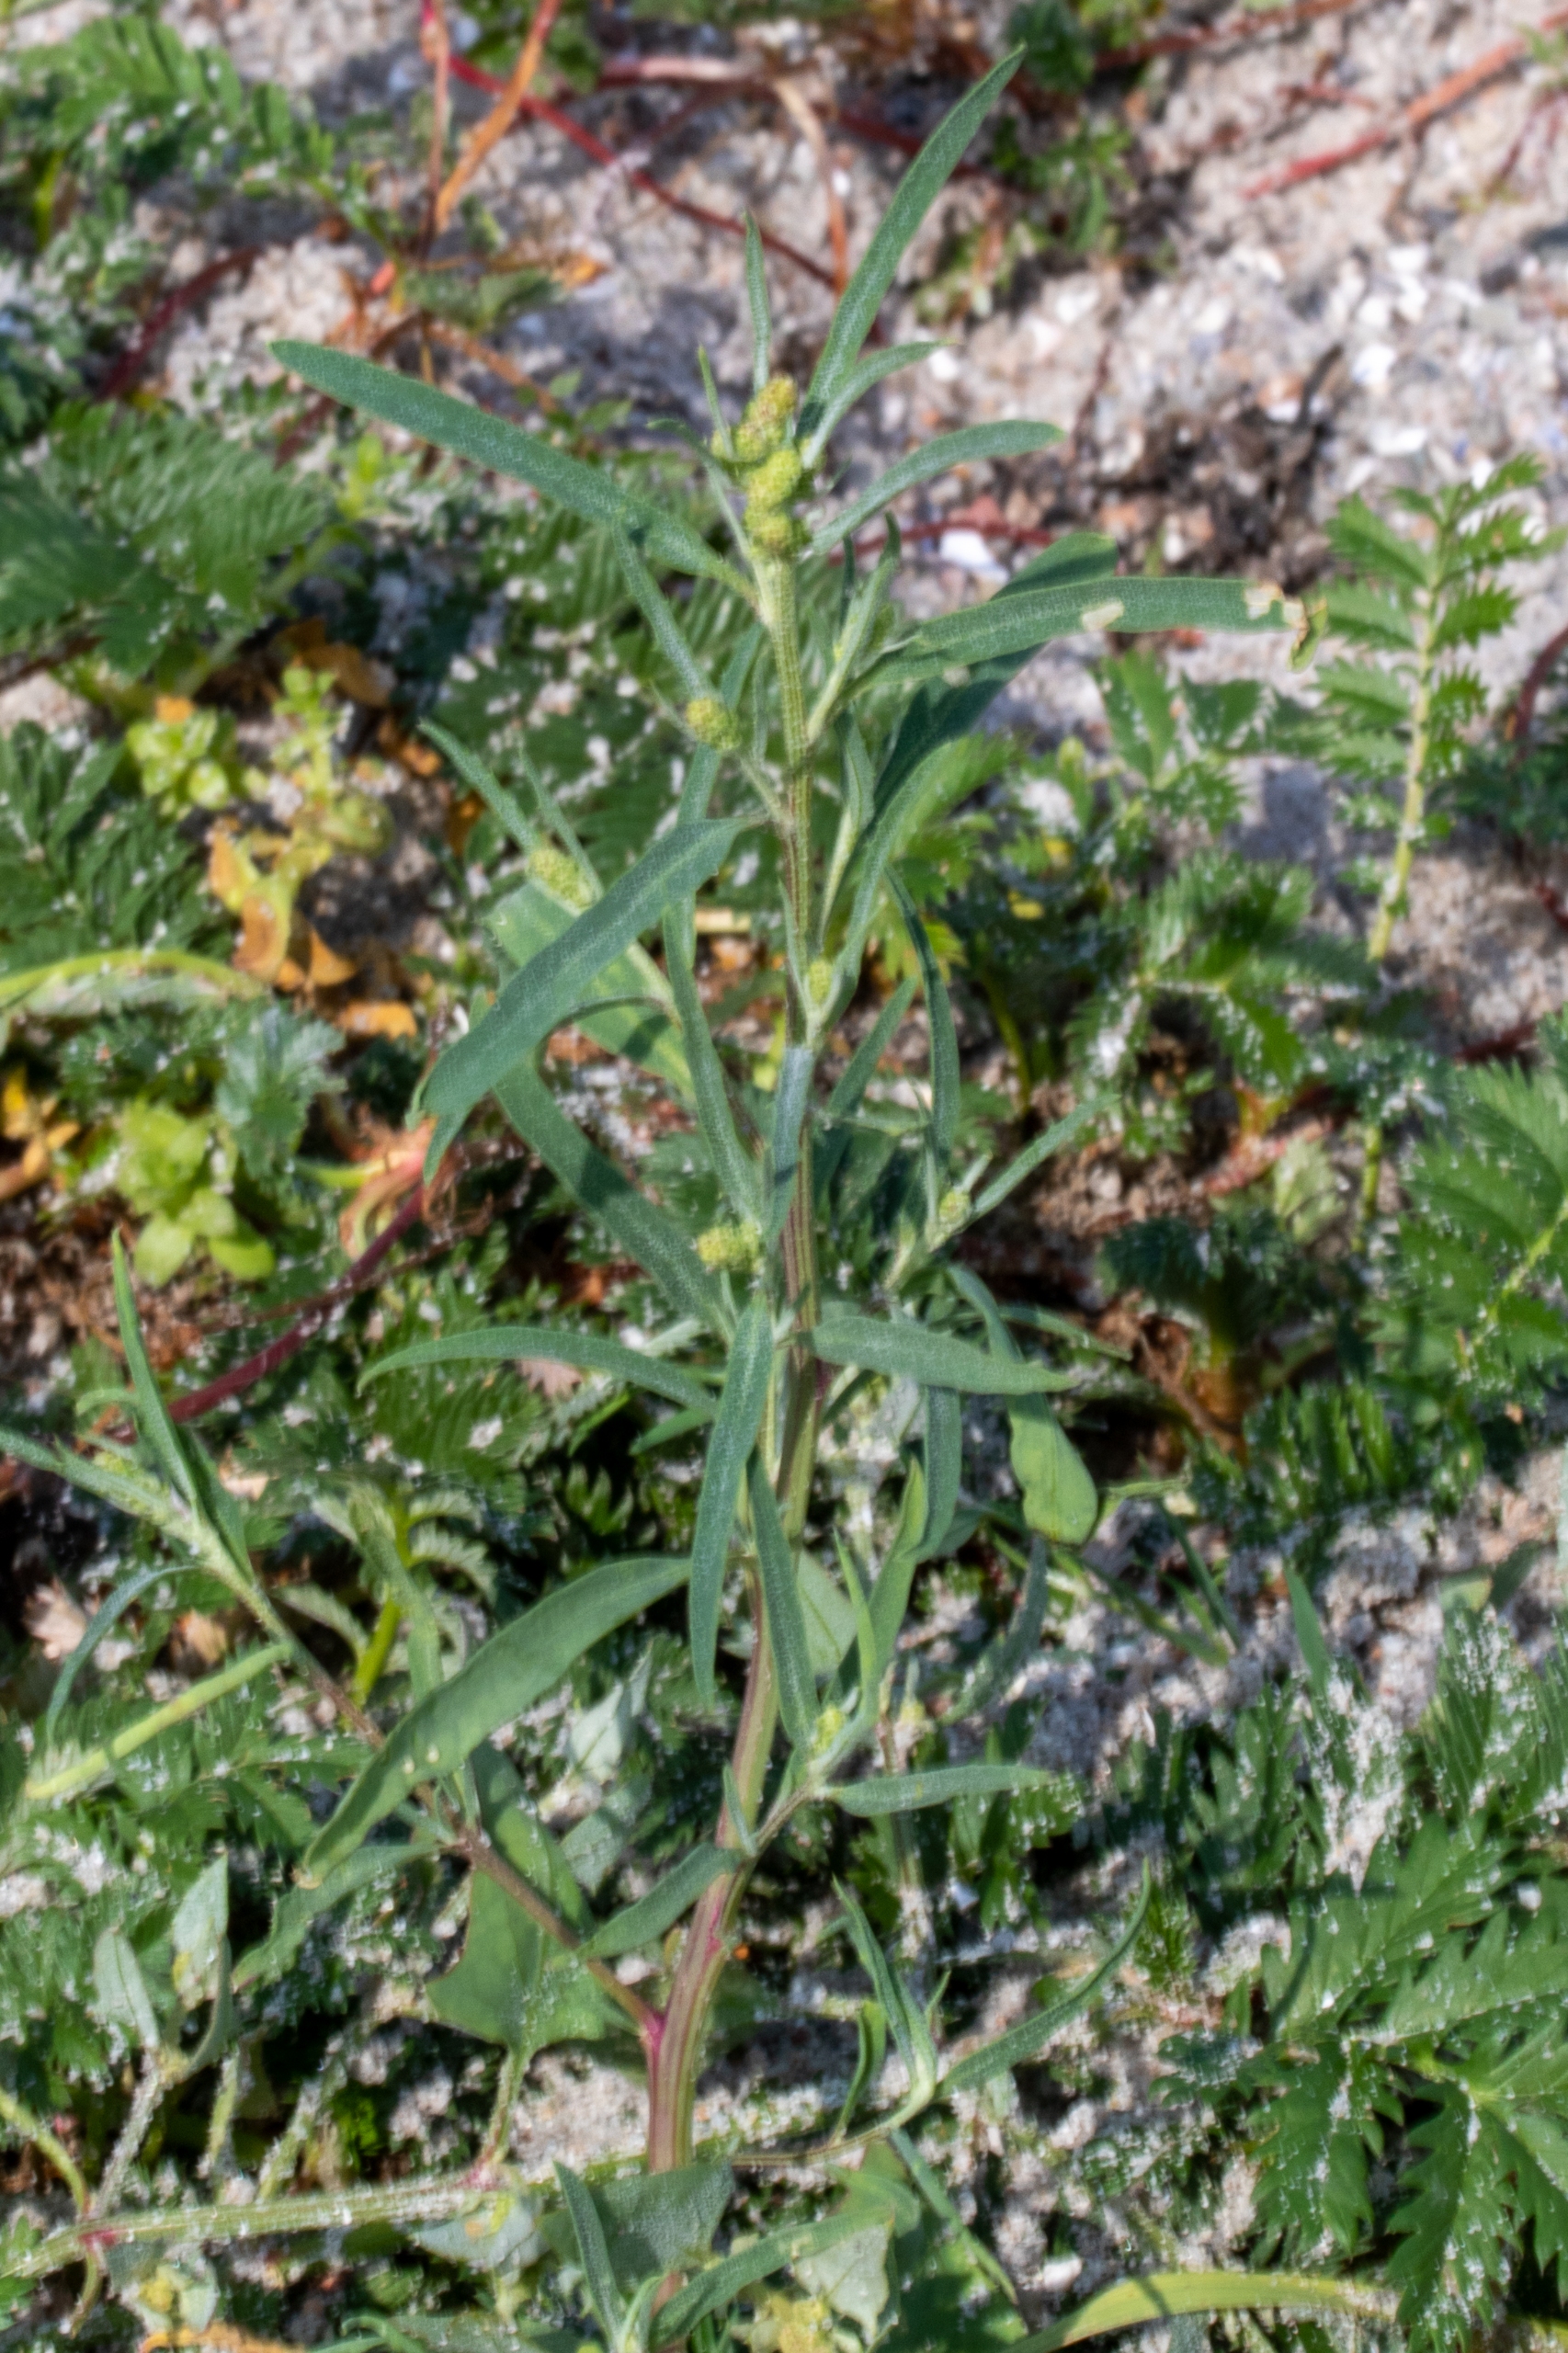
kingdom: Plantae
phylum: Tracheophyta
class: Magnoliopsida
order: Caryophyllales
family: Amaranthaceae
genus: Atriplex
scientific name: Atriplex littoralis
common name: Strand-mælde
